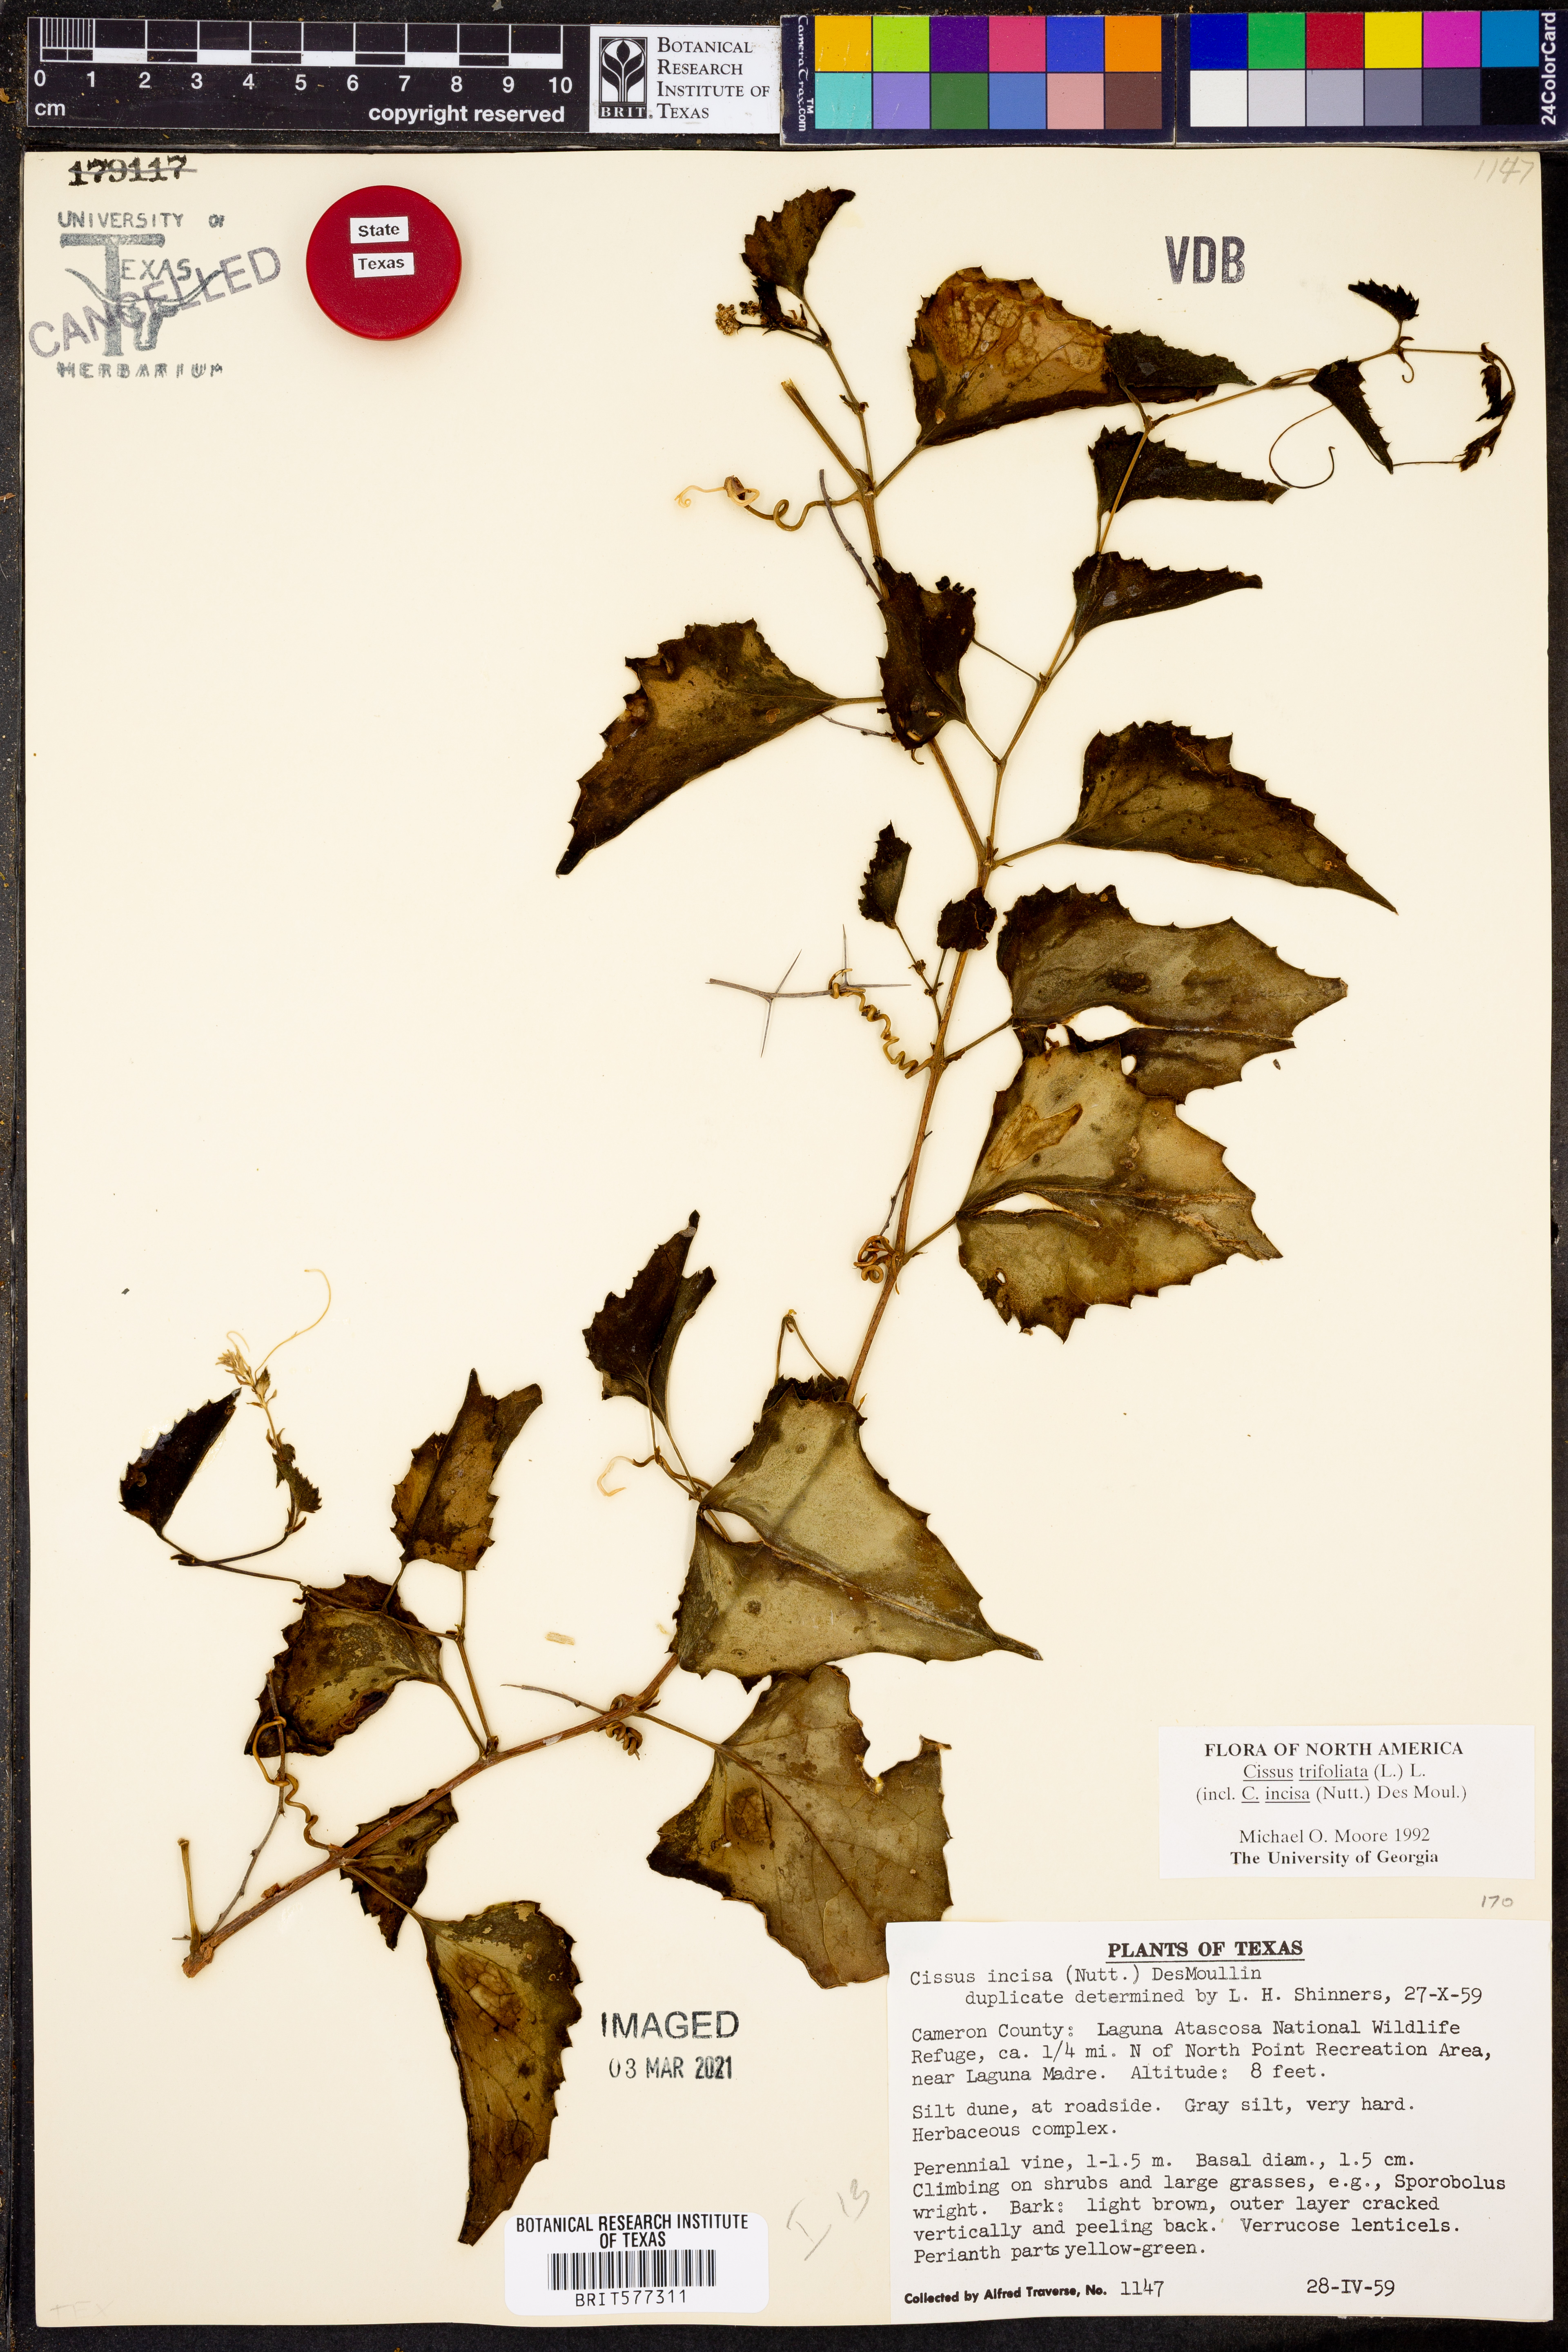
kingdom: Plantae
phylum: Tracheophyta
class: Magnoliopsida
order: Vitales
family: Vitaceae
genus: Cissus
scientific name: Cissus trifoliata
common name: Vine-sorrel
